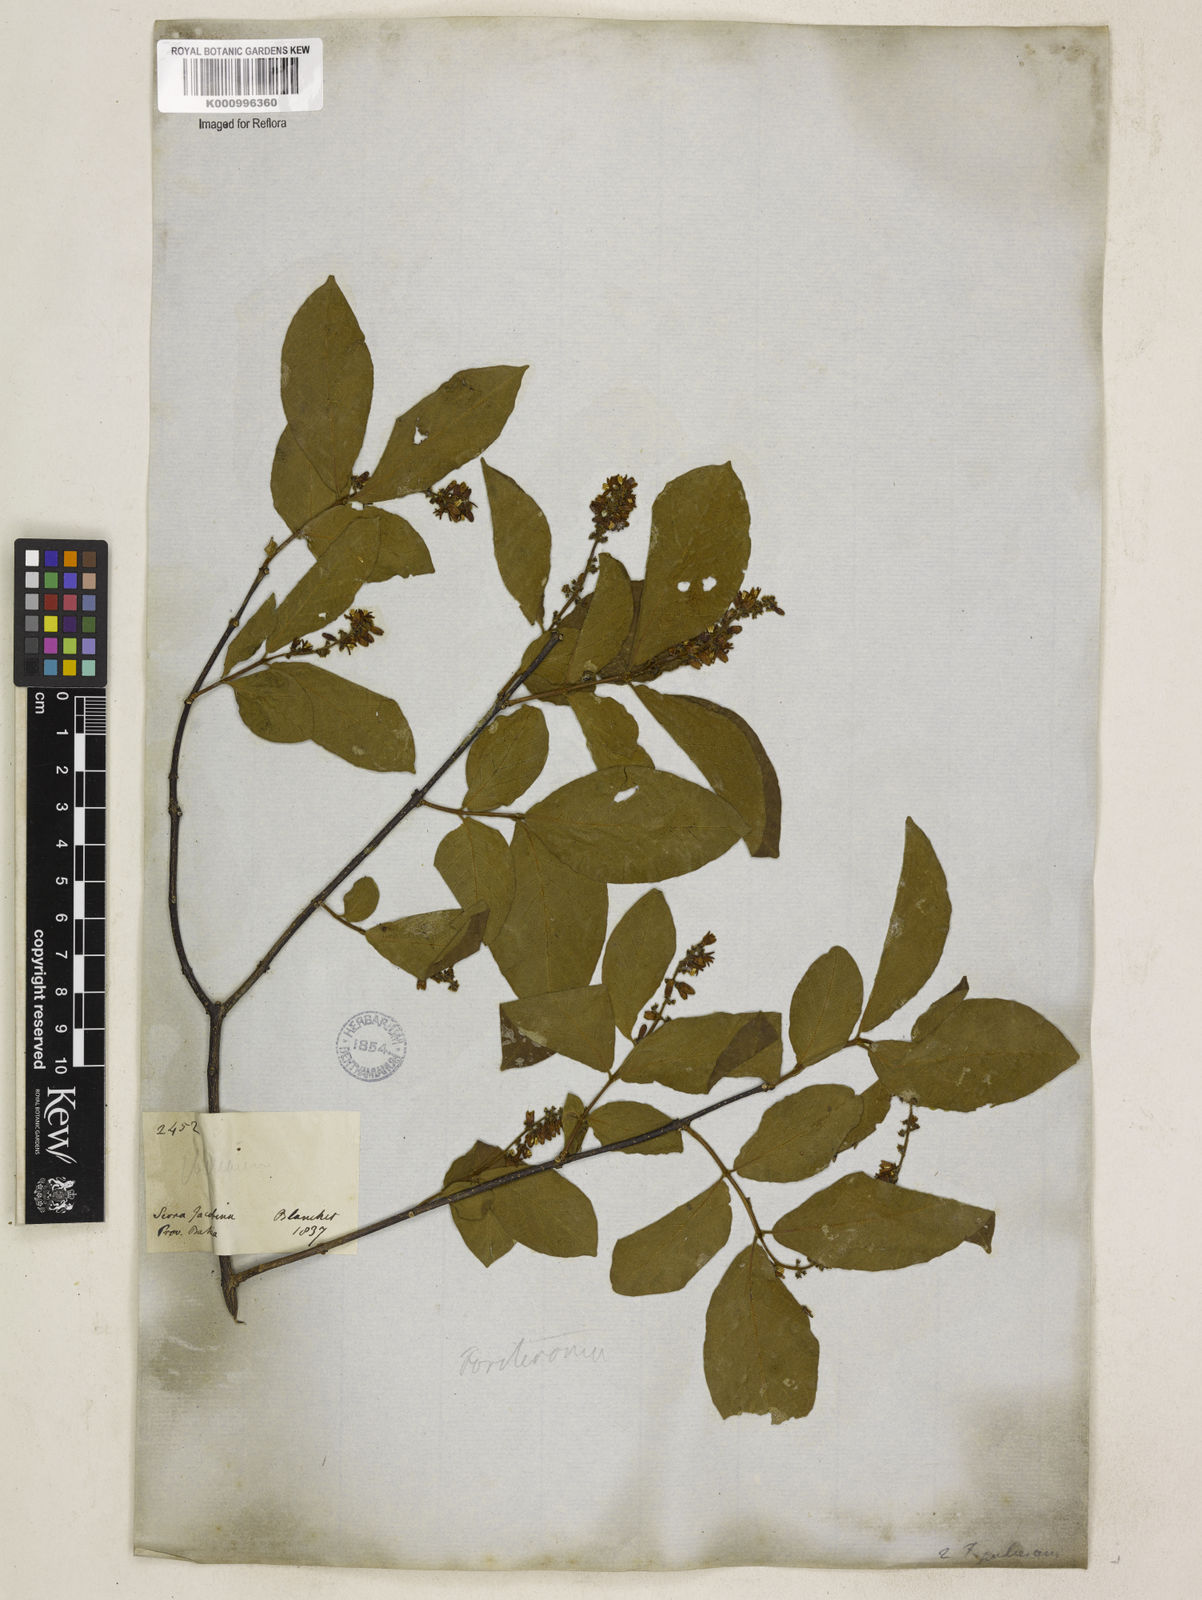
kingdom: Plantae
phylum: Tracheophyta
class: Magnoliopsida
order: Gentianales
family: Apocynaceae
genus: Forsteronia
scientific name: Forsteronia pubescens
